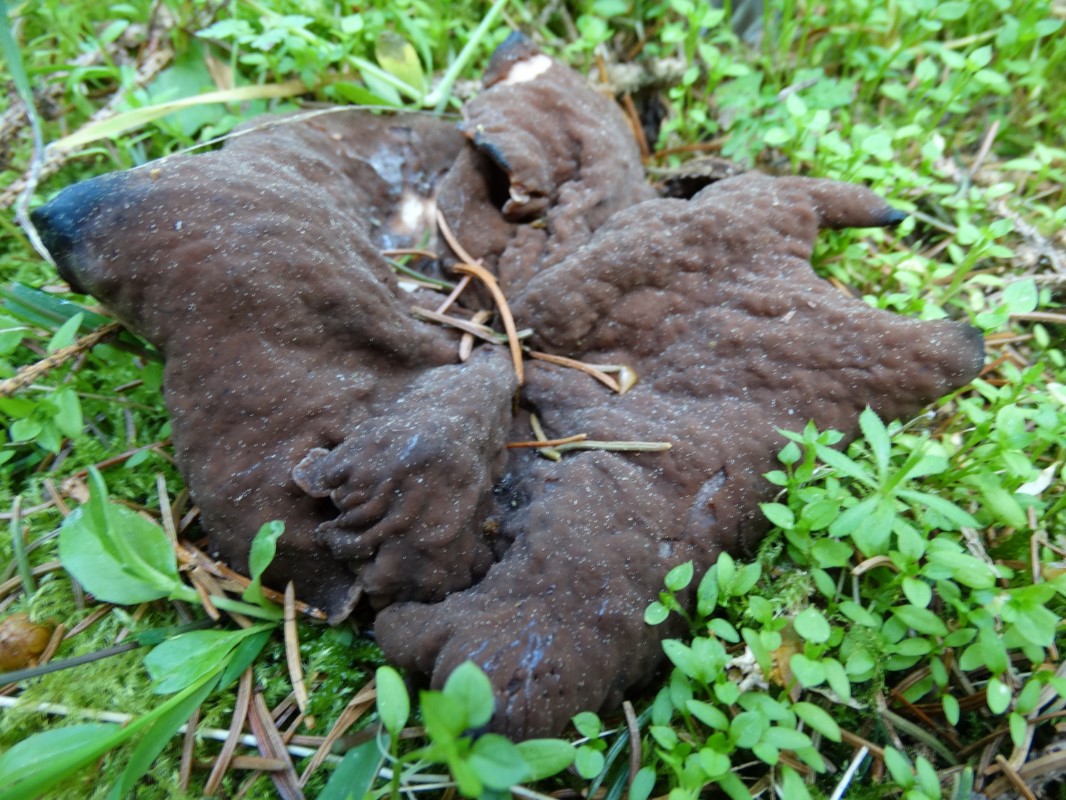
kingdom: Fungi
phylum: Ascomycota
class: Pezizomycetes
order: Pezizales
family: Discinaceae
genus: Discina
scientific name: Discina ancilis
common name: udbredt stenmorkel
